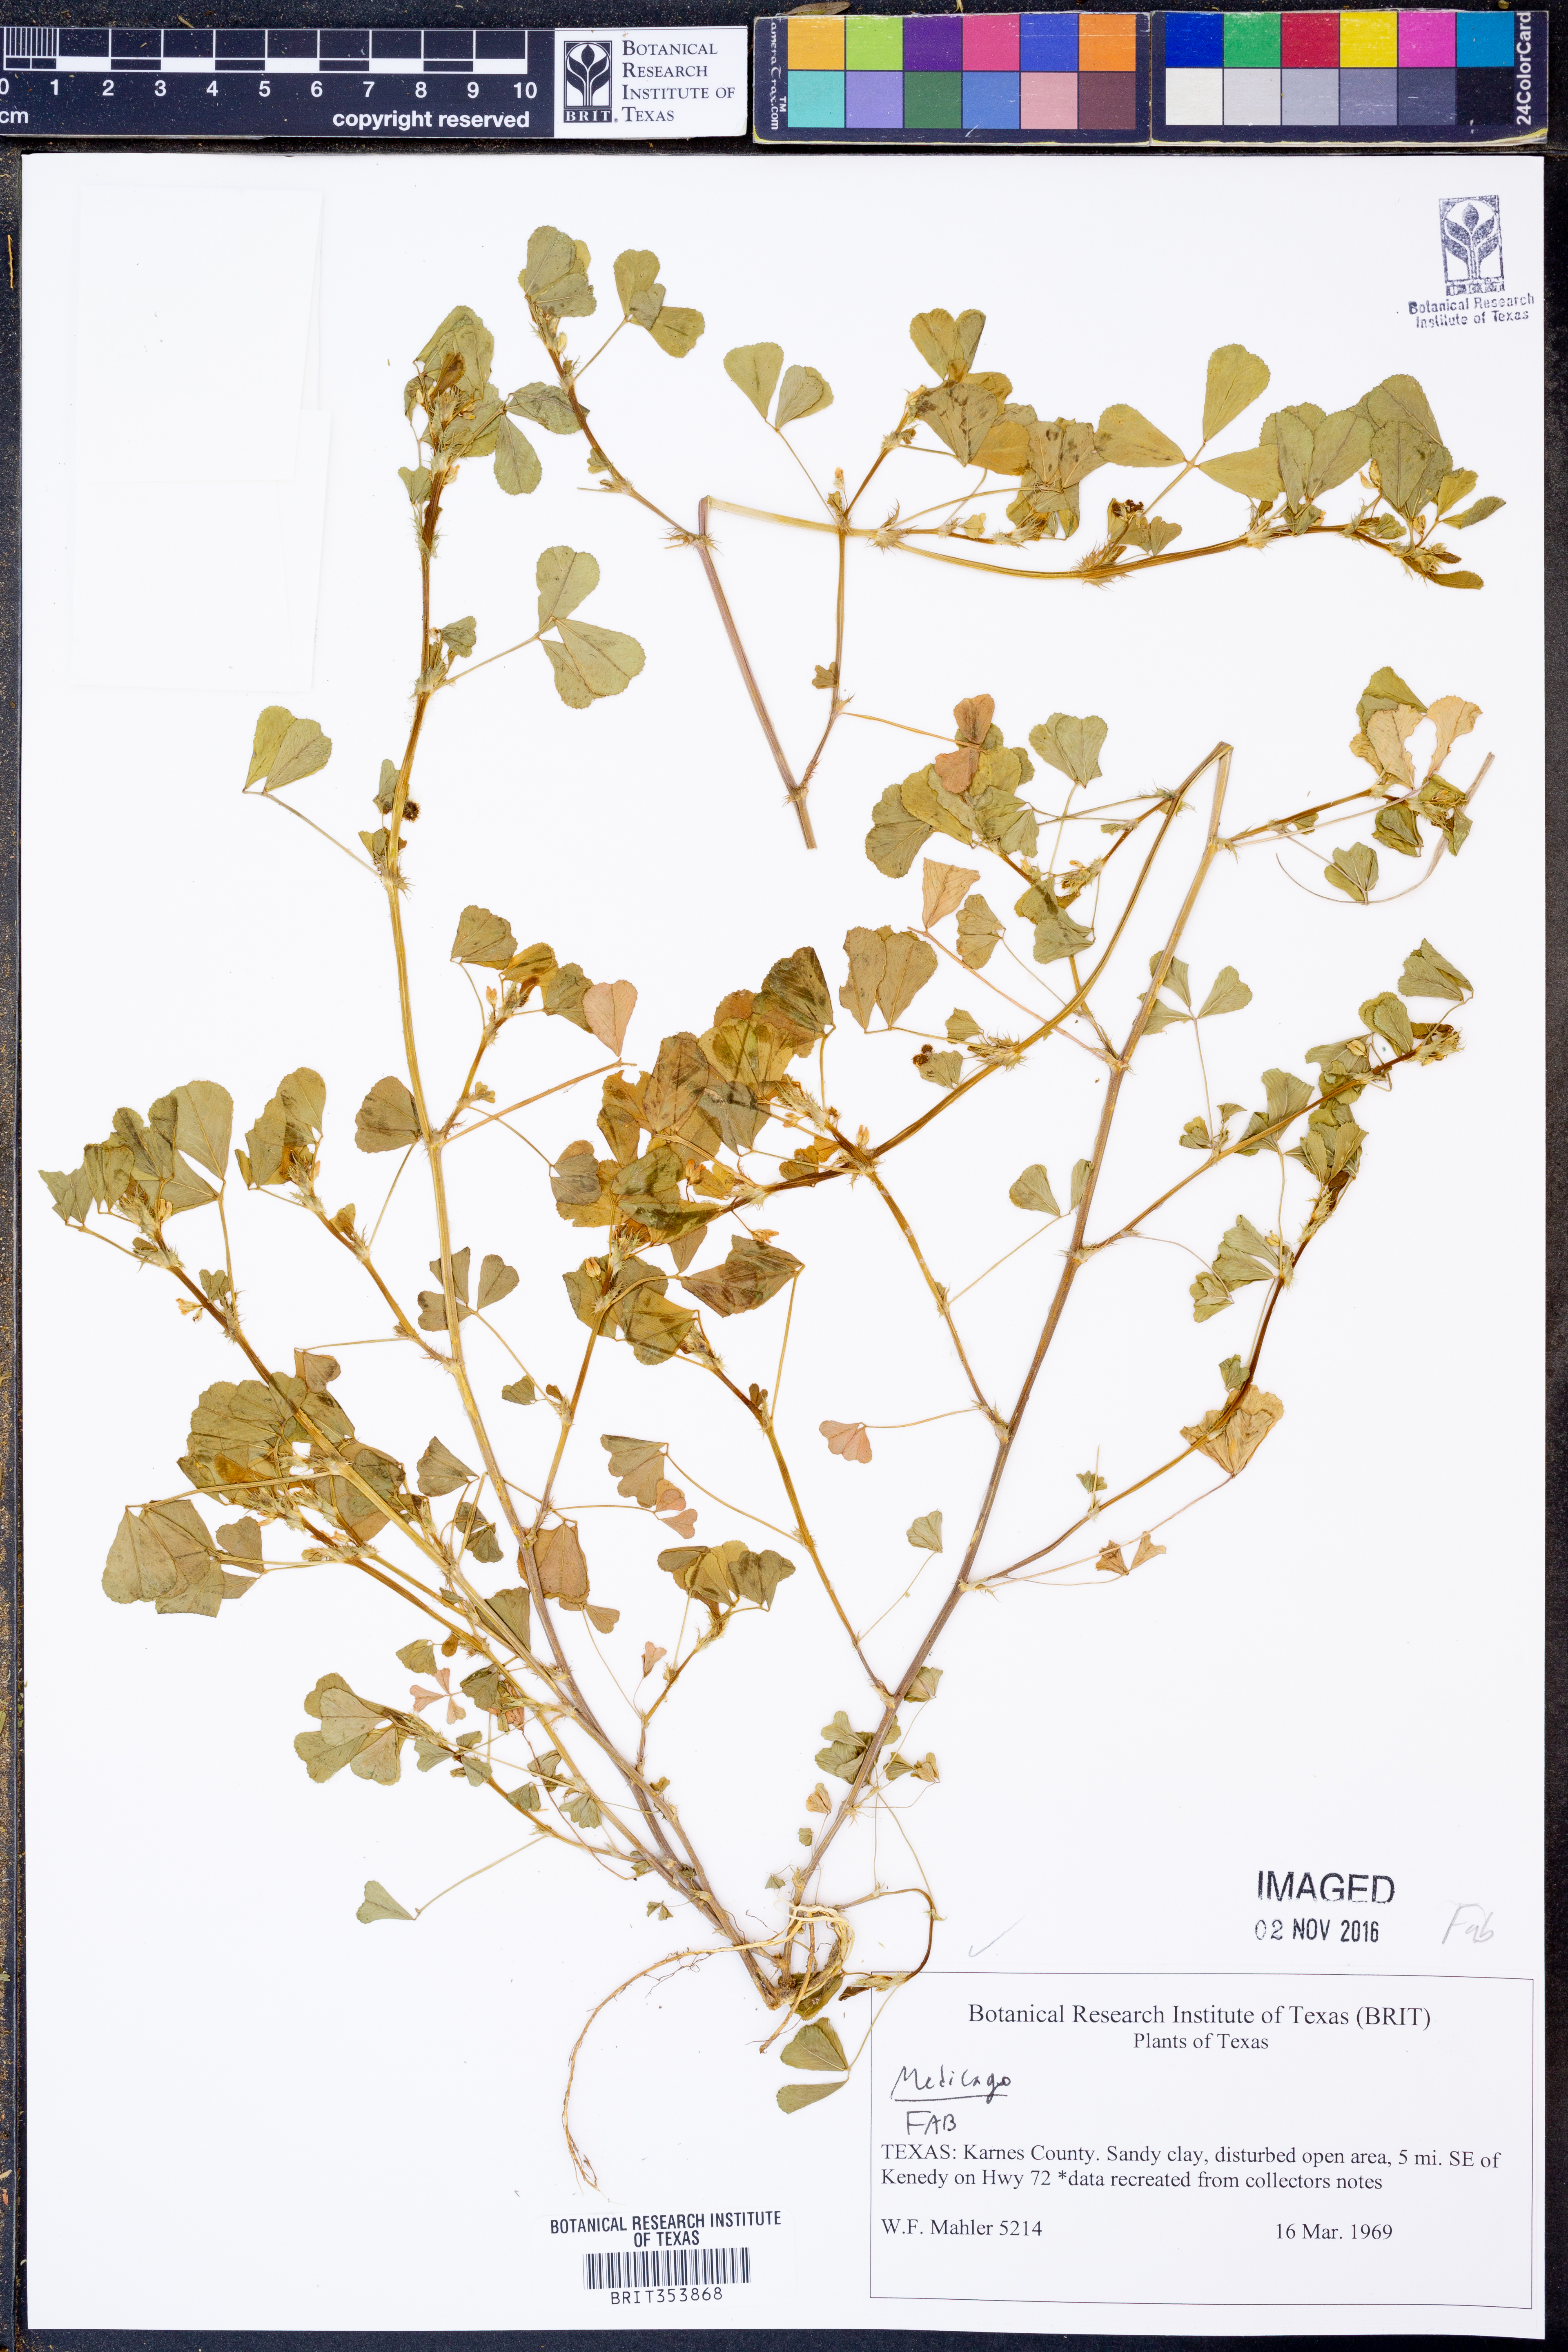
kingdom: Plantae
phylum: Tracheophyta
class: Magnoliopsida
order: Fabales
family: Fabaceae
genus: Medicago
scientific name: Medicago
